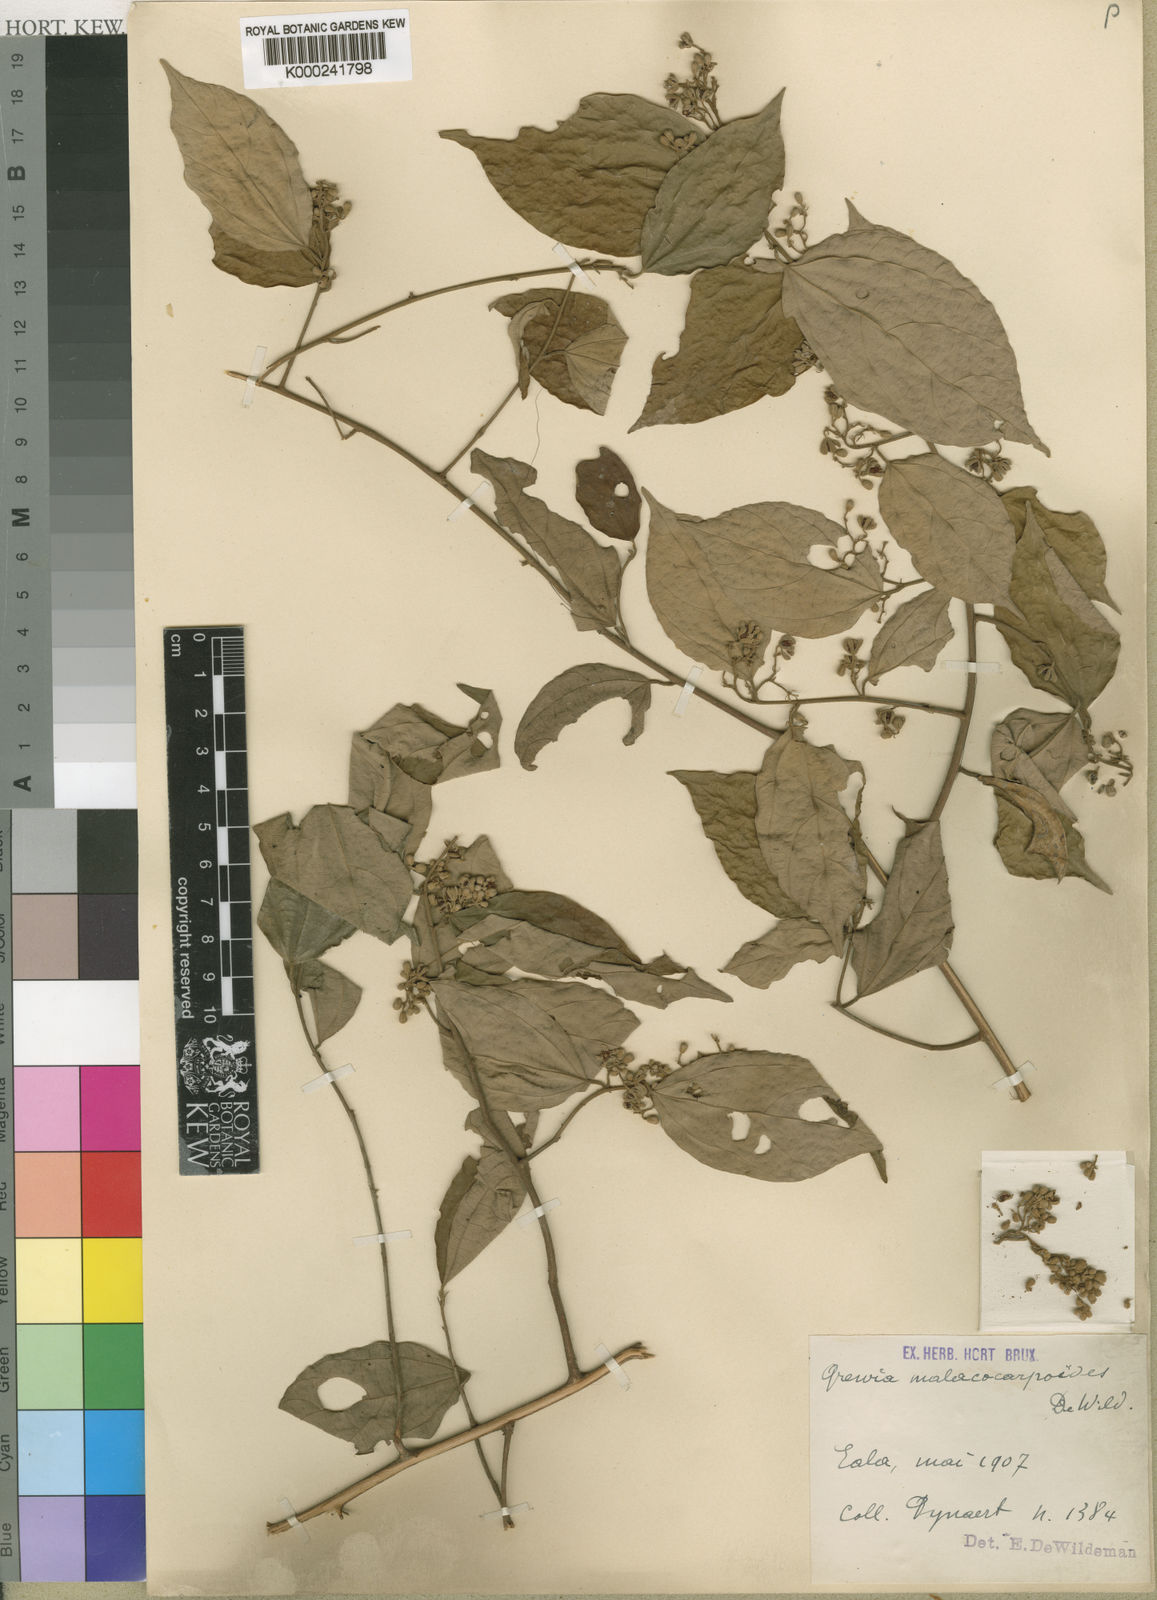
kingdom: Plantae
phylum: Tracheophyta
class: Magnoliopsida
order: Malvales
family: Malvaceae
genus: Microcos
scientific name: Microcos malacocarpa
